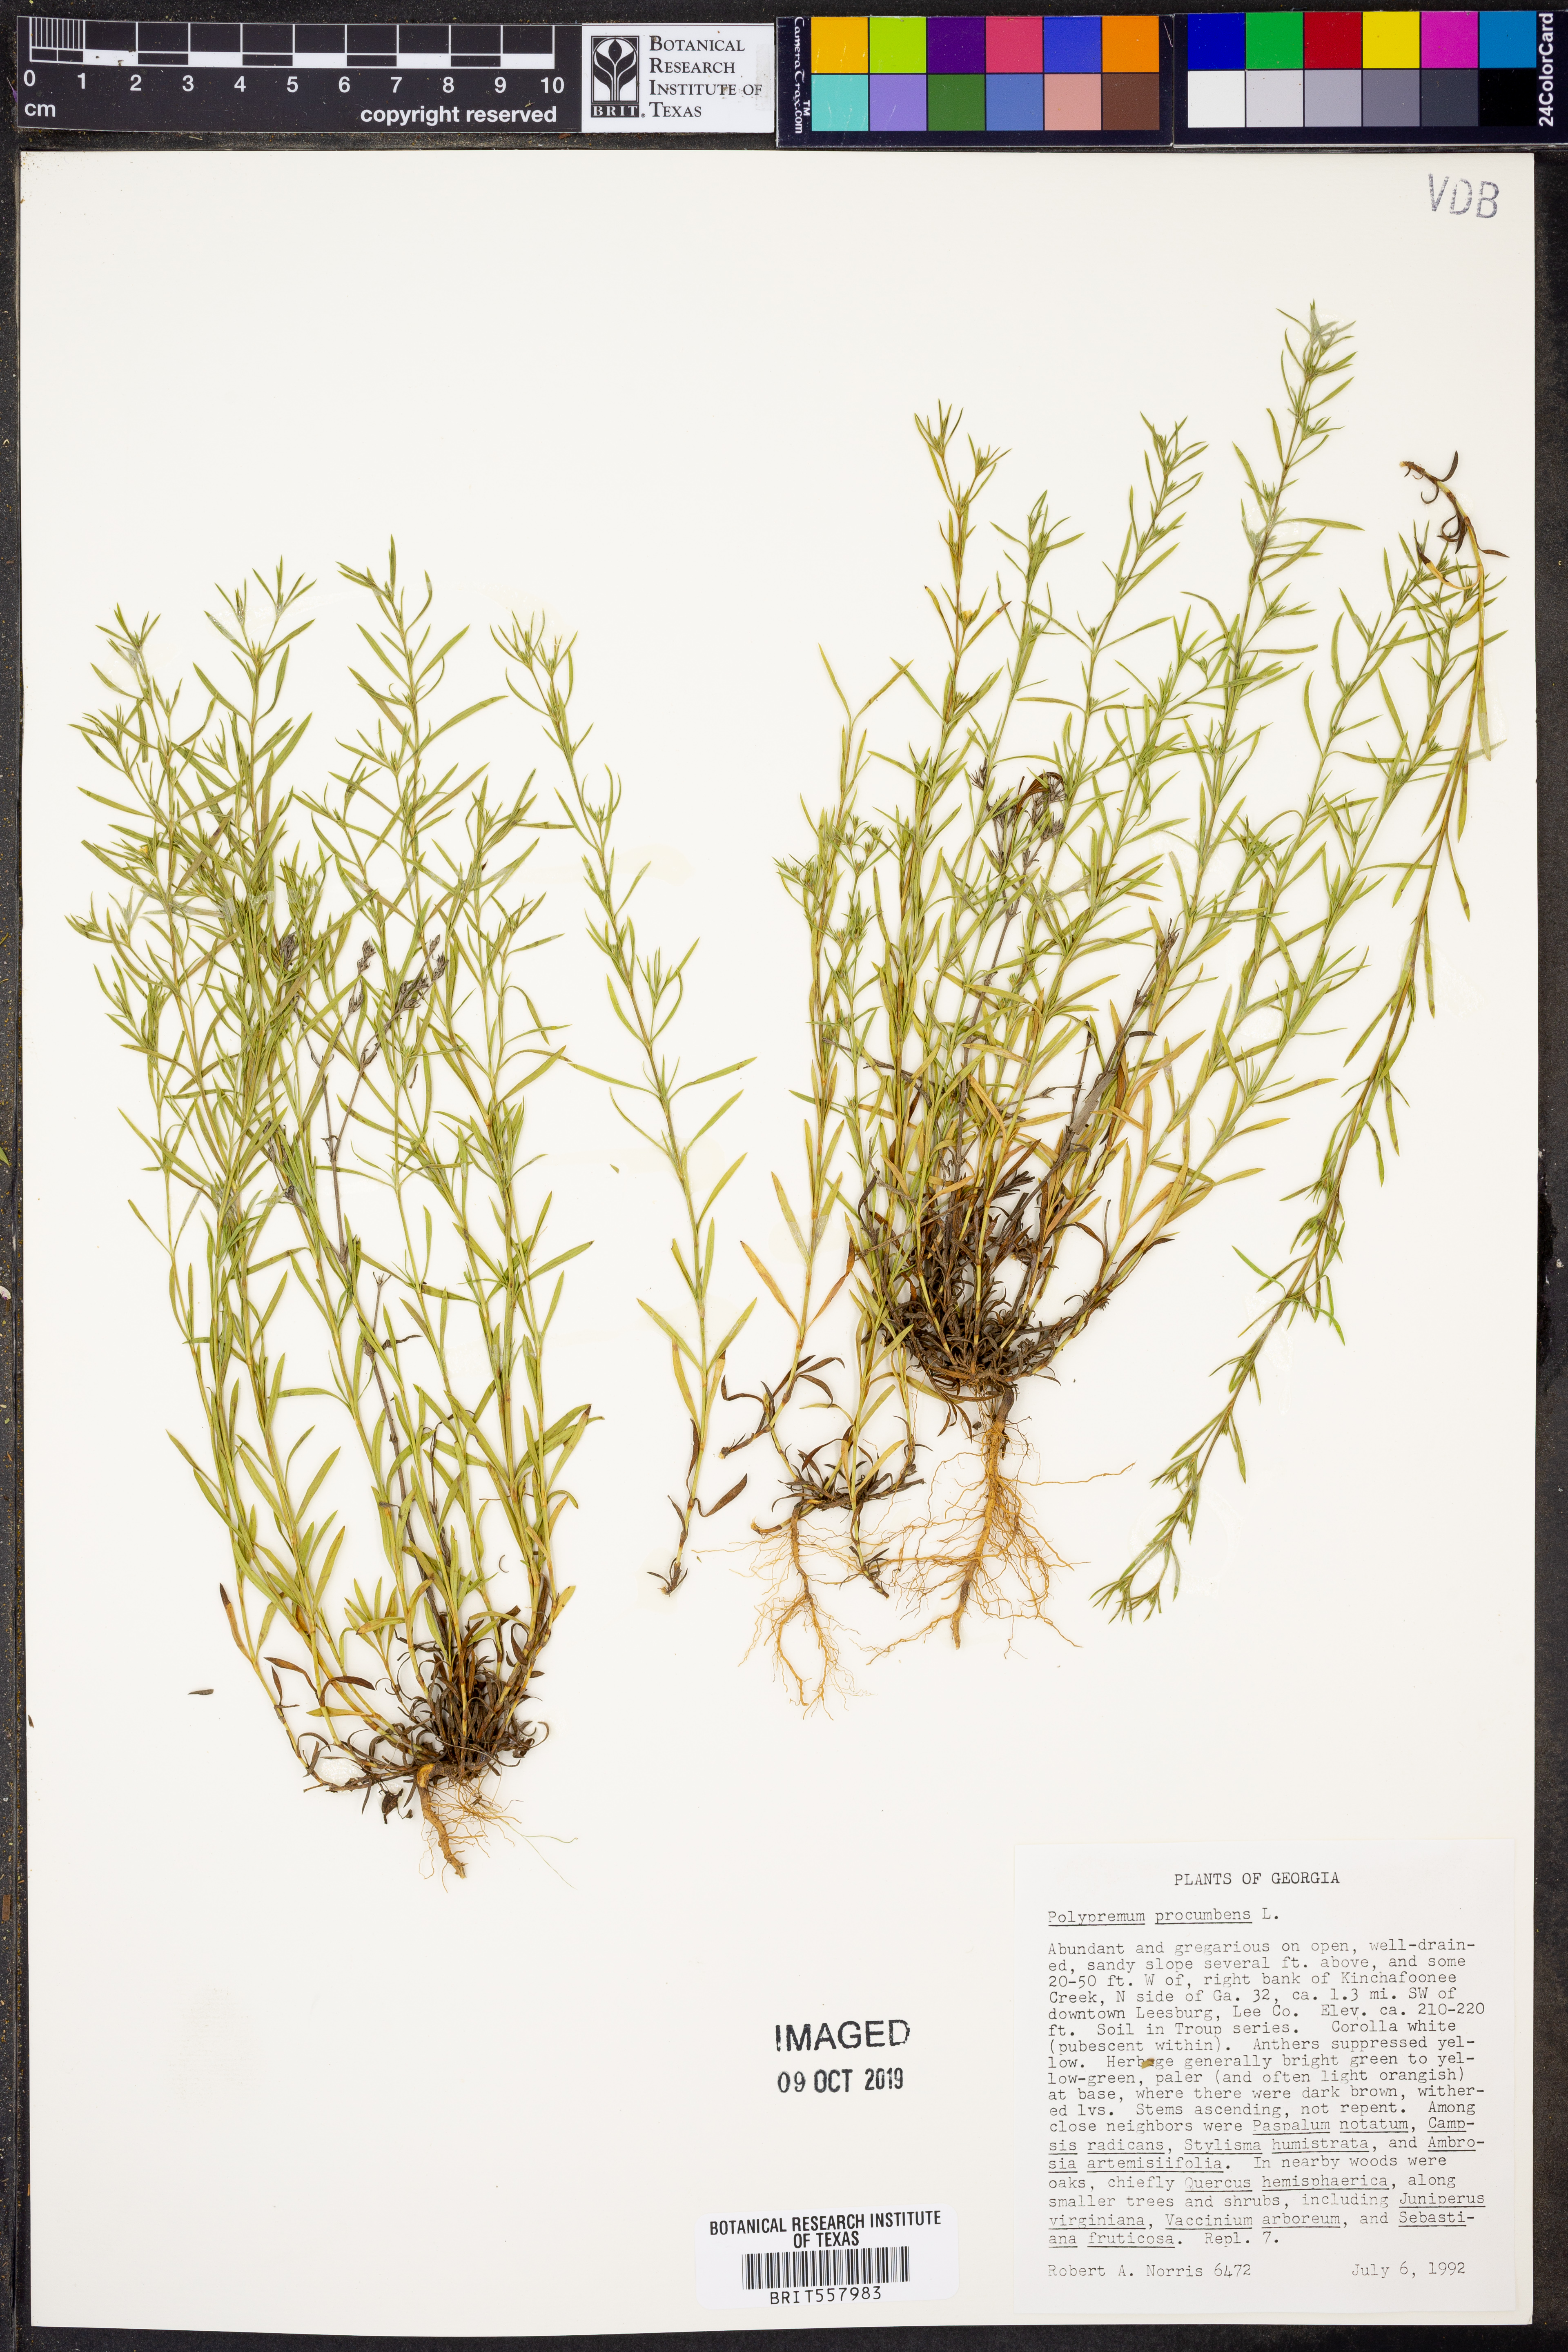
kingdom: Plantae
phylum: Tracheophyta
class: Magnoliopsida
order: Lamiales
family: Tetrachondraceae
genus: Polypremum
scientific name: Polypremum procumbens
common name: Juniper-leaf
